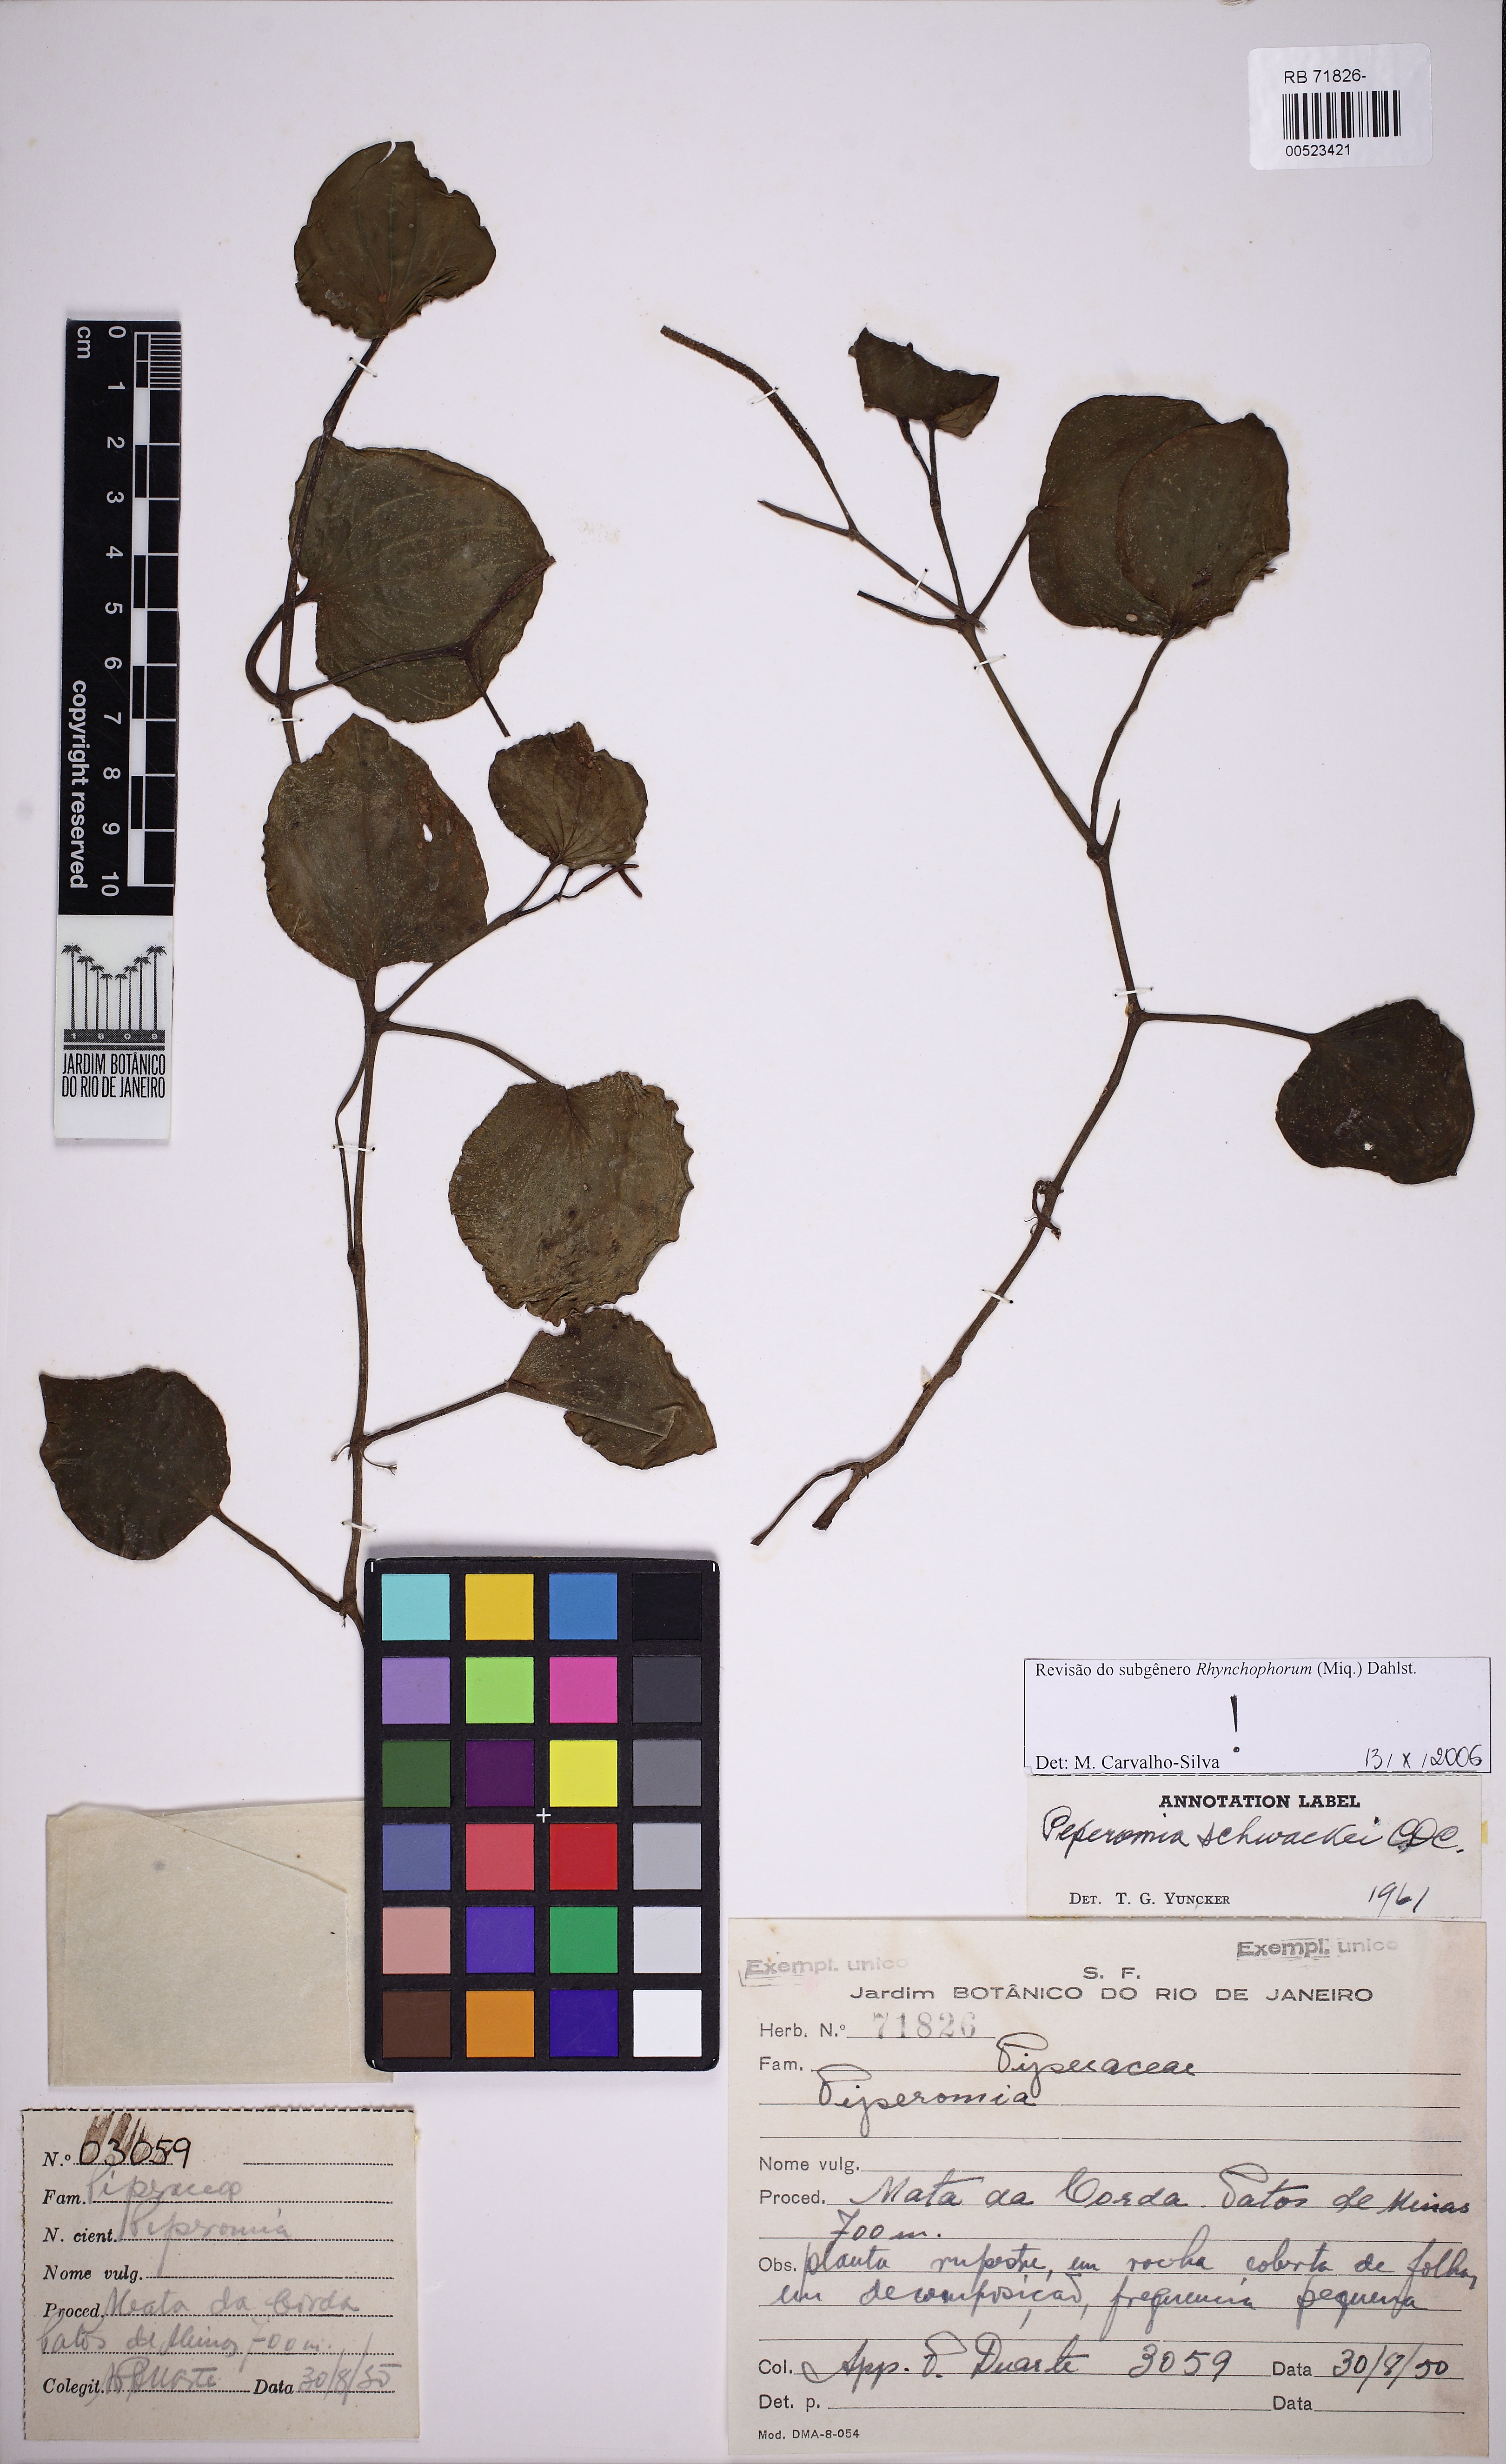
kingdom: Plantae
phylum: Tracheophyta
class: Magnoliopsida
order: Piperales
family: Piperaceae
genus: Peperomia
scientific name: Peperomia schwackei
